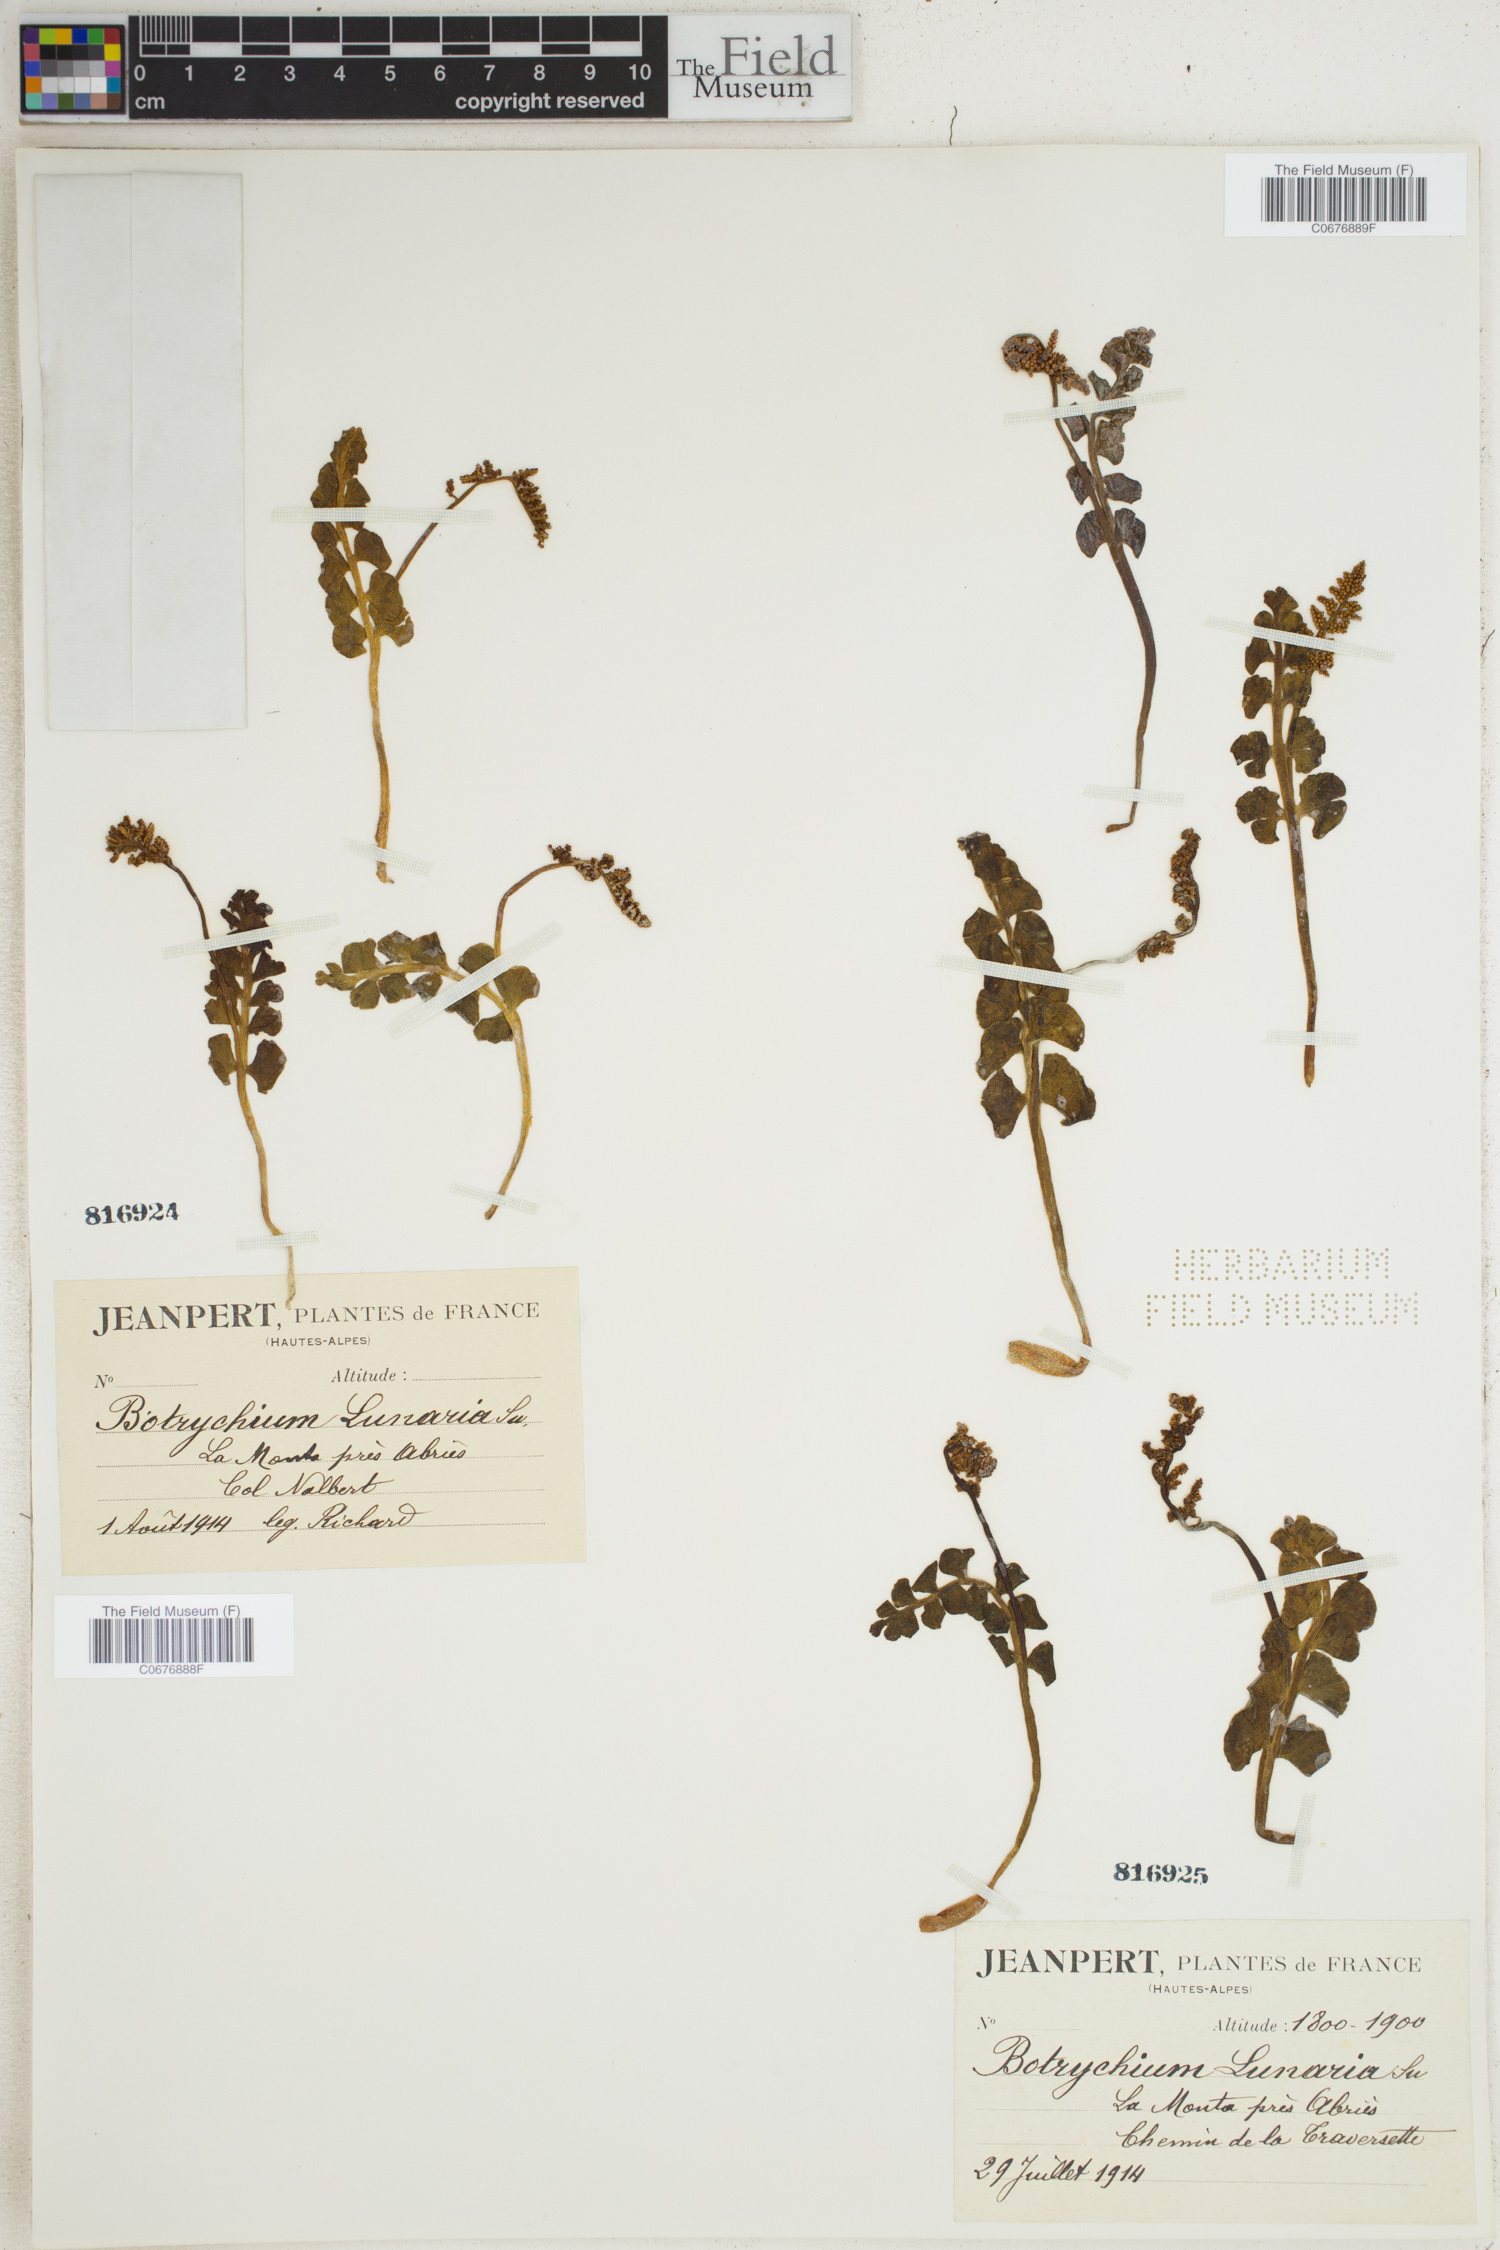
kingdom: Plantae
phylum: Tracheophyta
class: Polypodiopsida
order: Ophioglossales
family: Ophioglossaceae
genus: Botrychium
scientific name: Botrychium lunaria
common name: Moonwort
